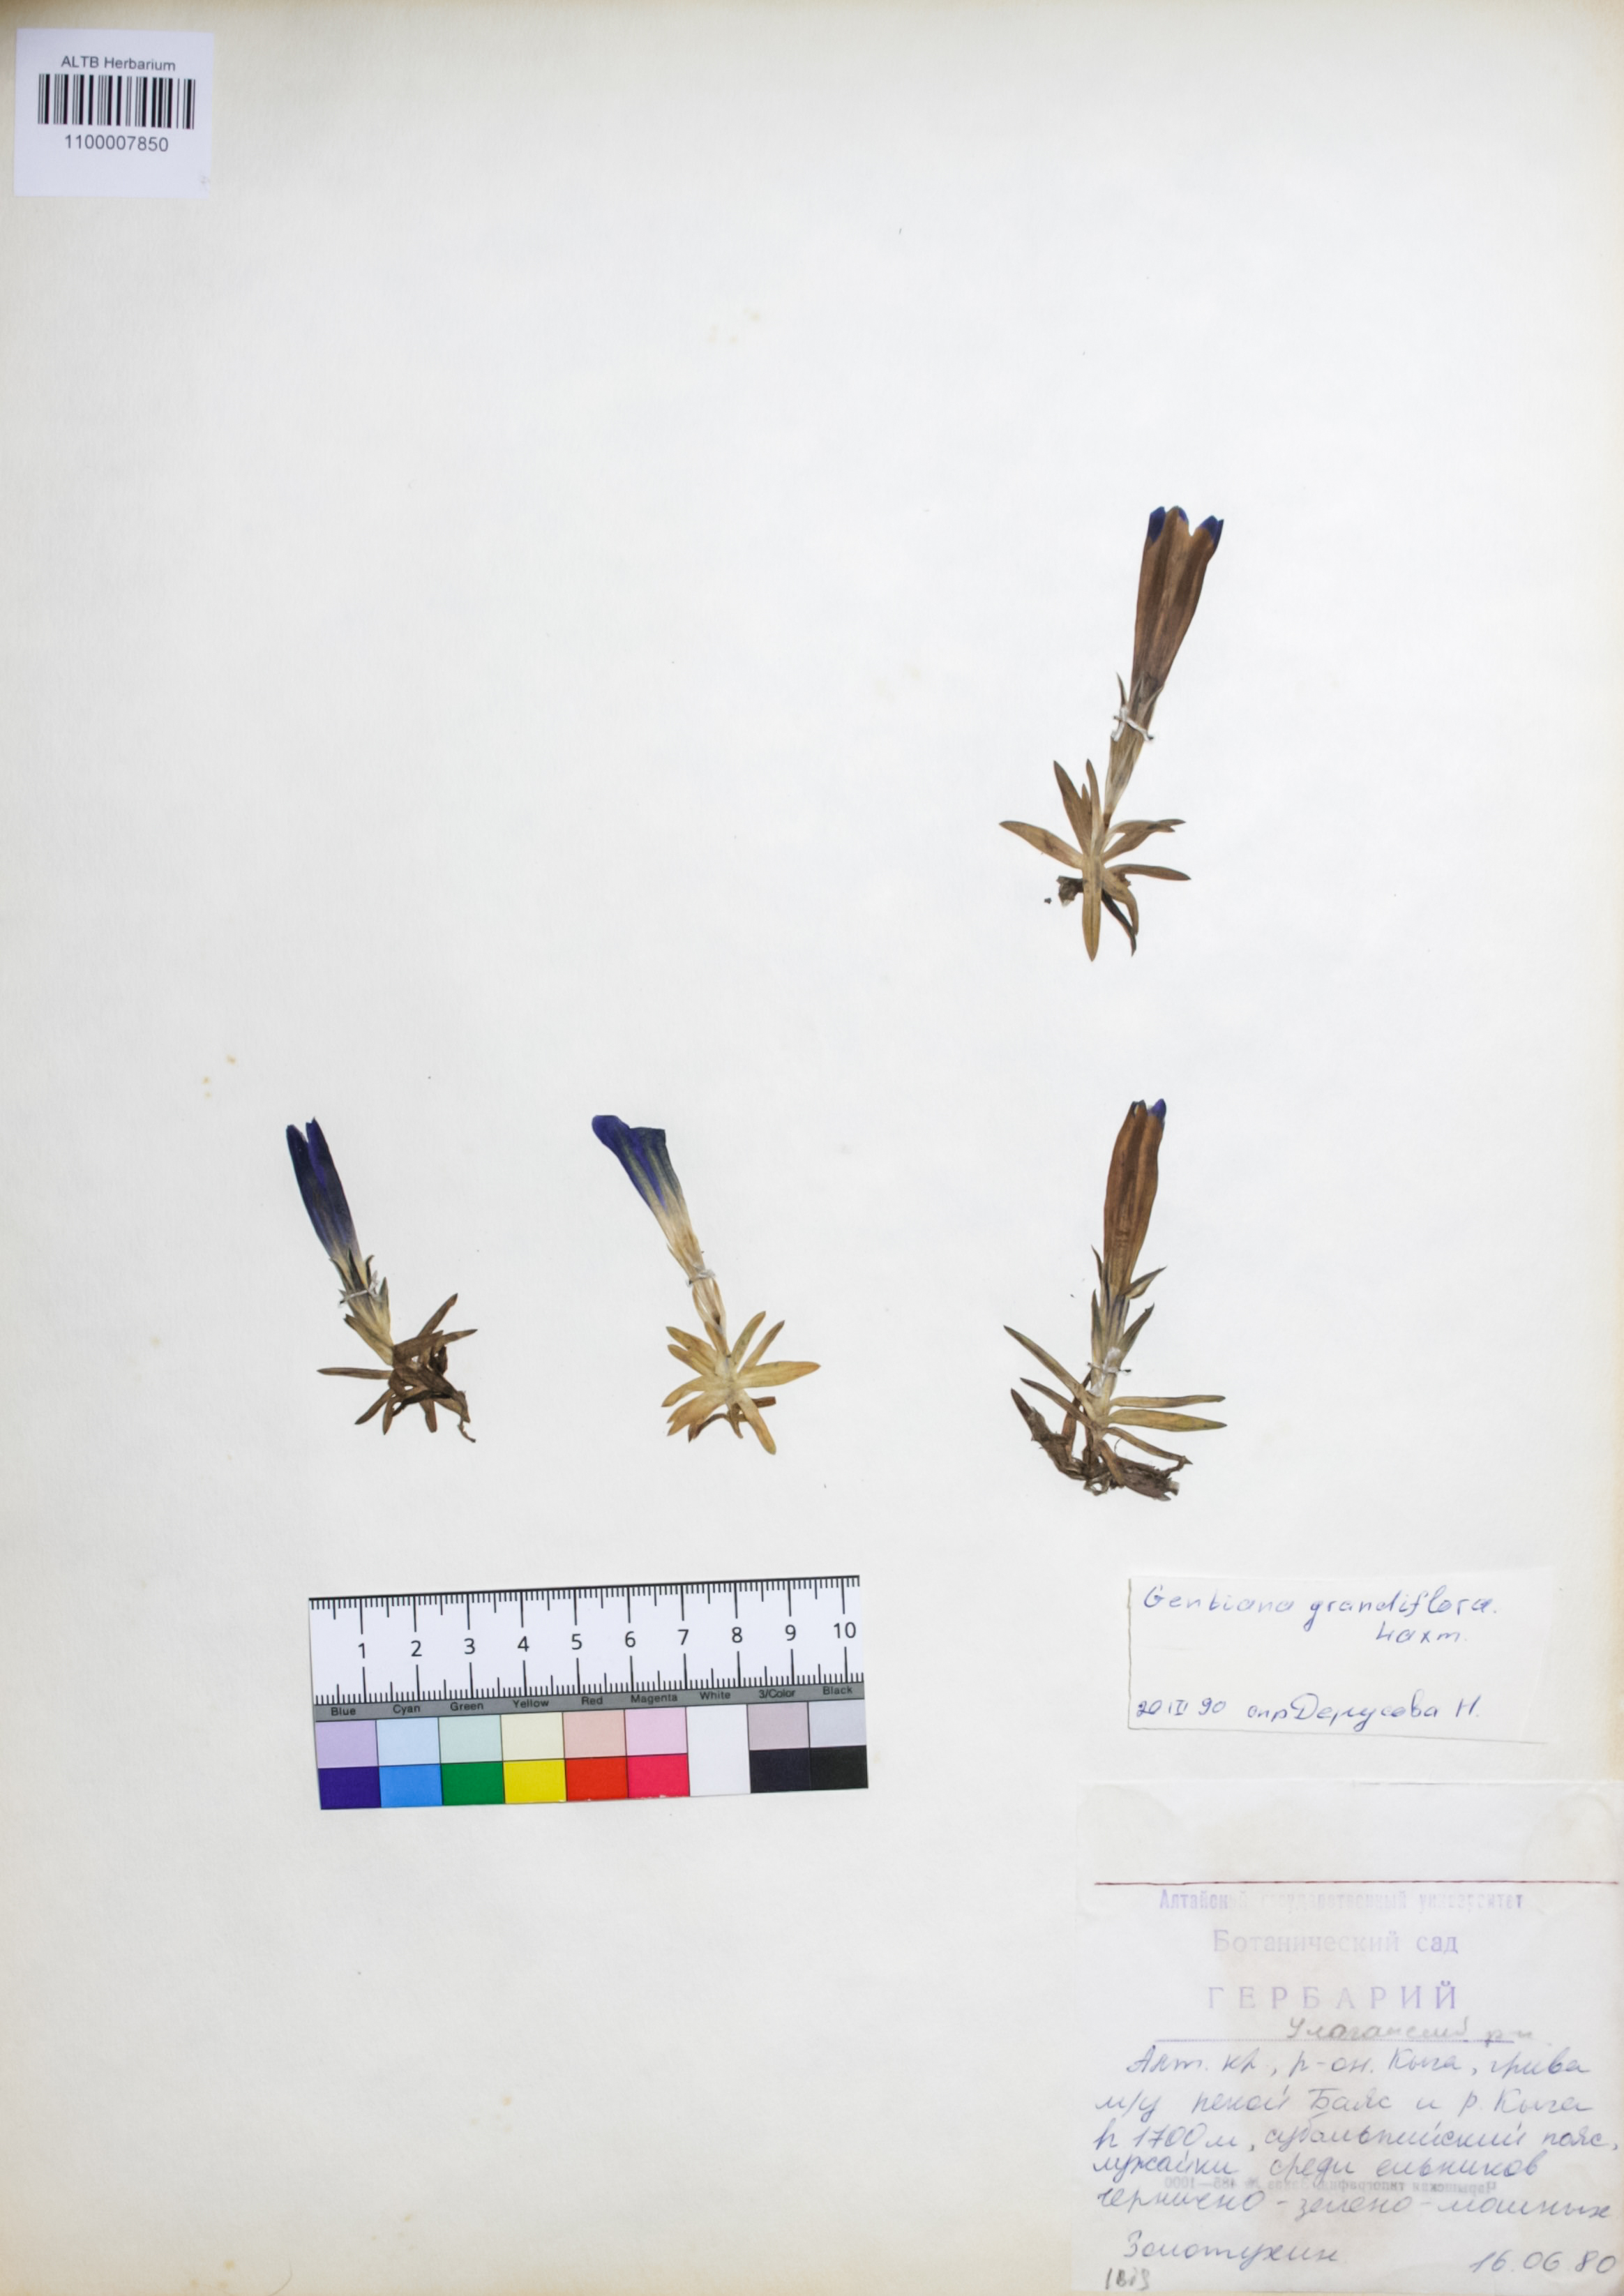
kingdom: Plantae
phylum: Tracheophyta
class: Magnoliopsida
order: Gentianales
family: Gentianaceae
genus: Gentiana
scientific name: Gentiana grandiflora
